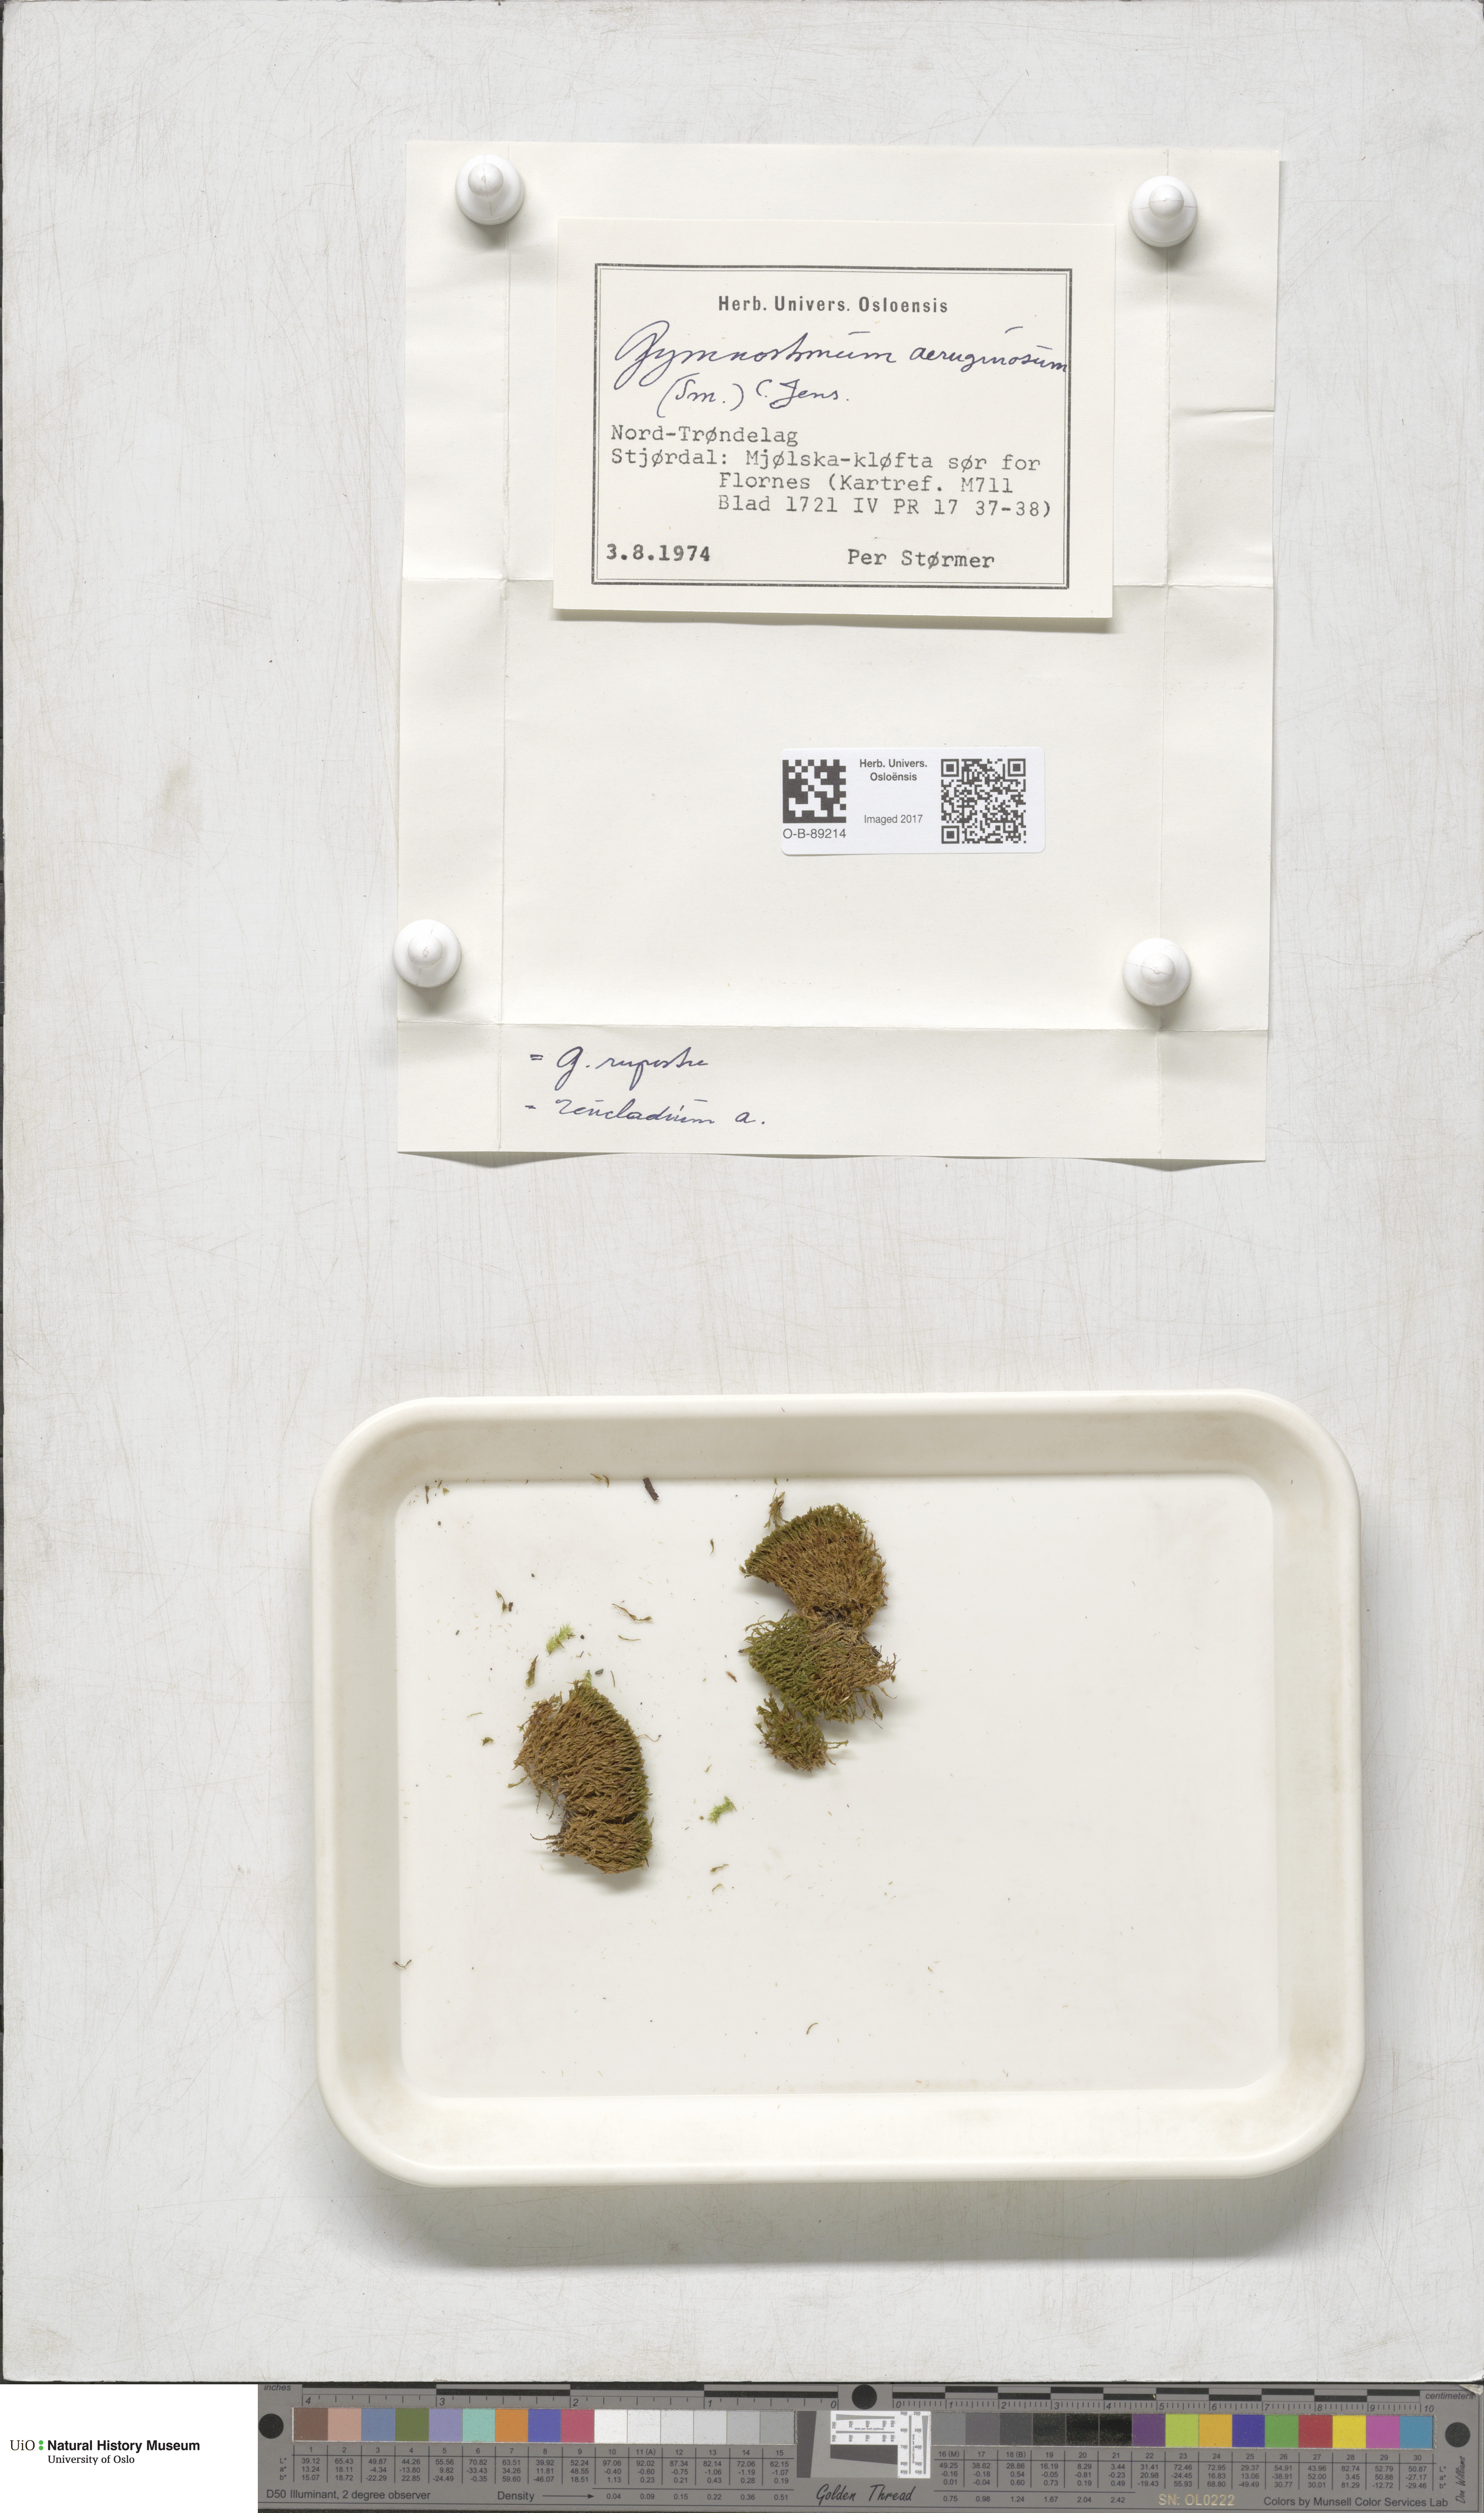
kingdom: Plantae
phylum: Bryophyta
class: Bryopsida
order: Pottiales
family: Pottiaceae
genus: Gymnostomum
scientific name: Gymnostomum aeruginosum
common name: Verdigris tufa-moss
